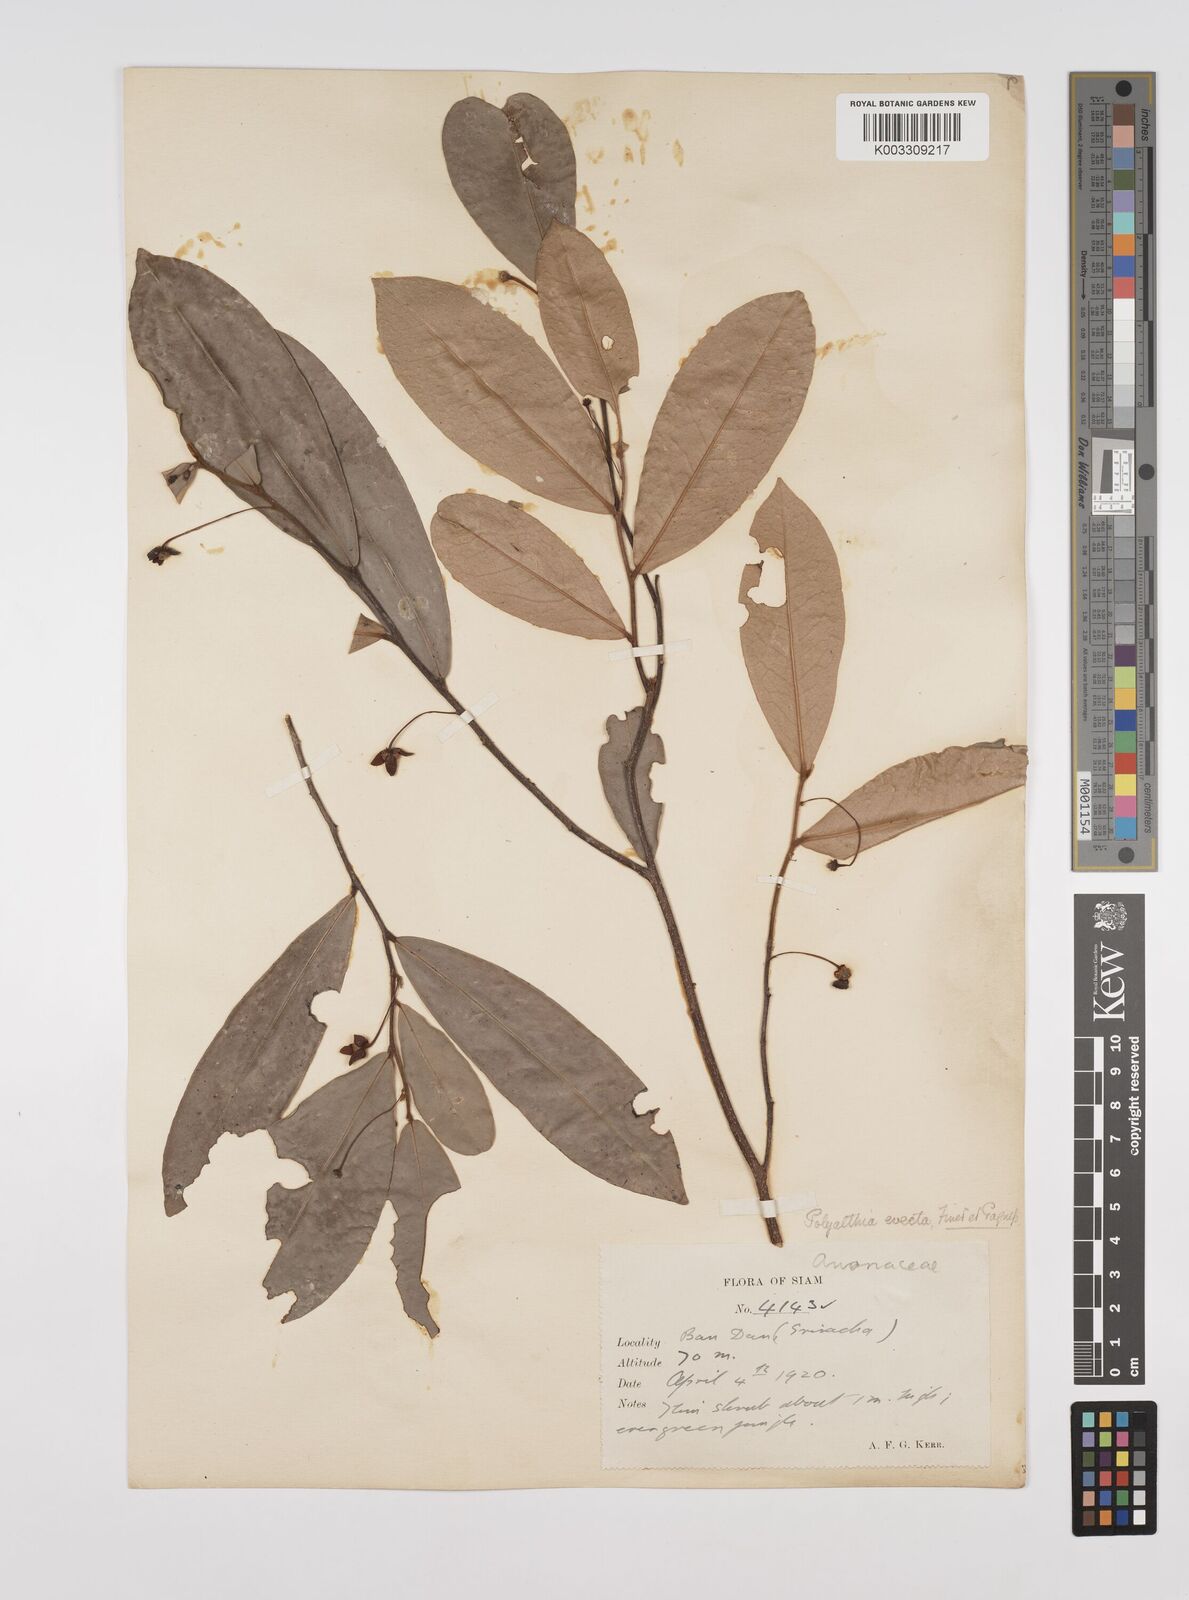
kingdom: Plantae
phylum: Tracheophyta
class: Magnoliopsida
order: Magnoliales
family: Annonaceae
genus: Polyalthia
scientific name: Polyalthia evecta
